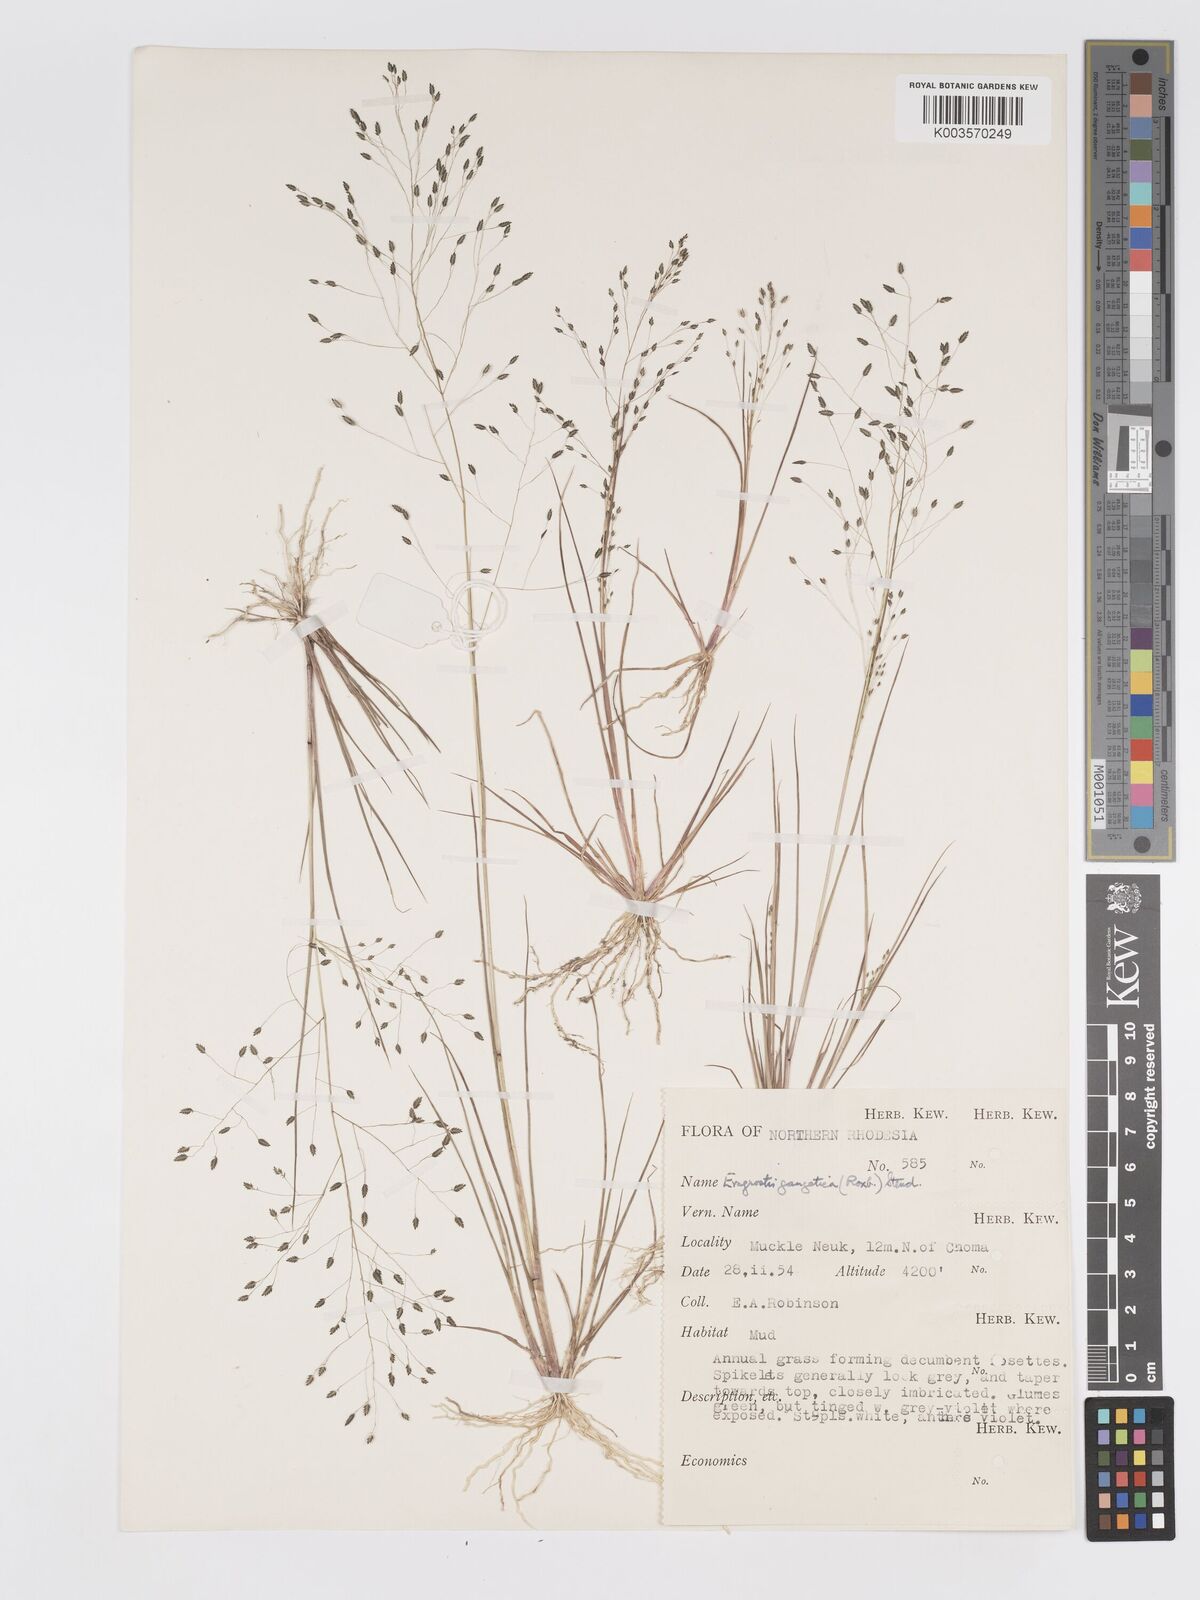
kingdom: Plantae
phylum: Tracheophyta
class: Liliopsida
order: Poales
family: Poaceae
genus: Eragrostis
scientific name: Eragrostis gangetica
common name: Slimflower lovegrass
